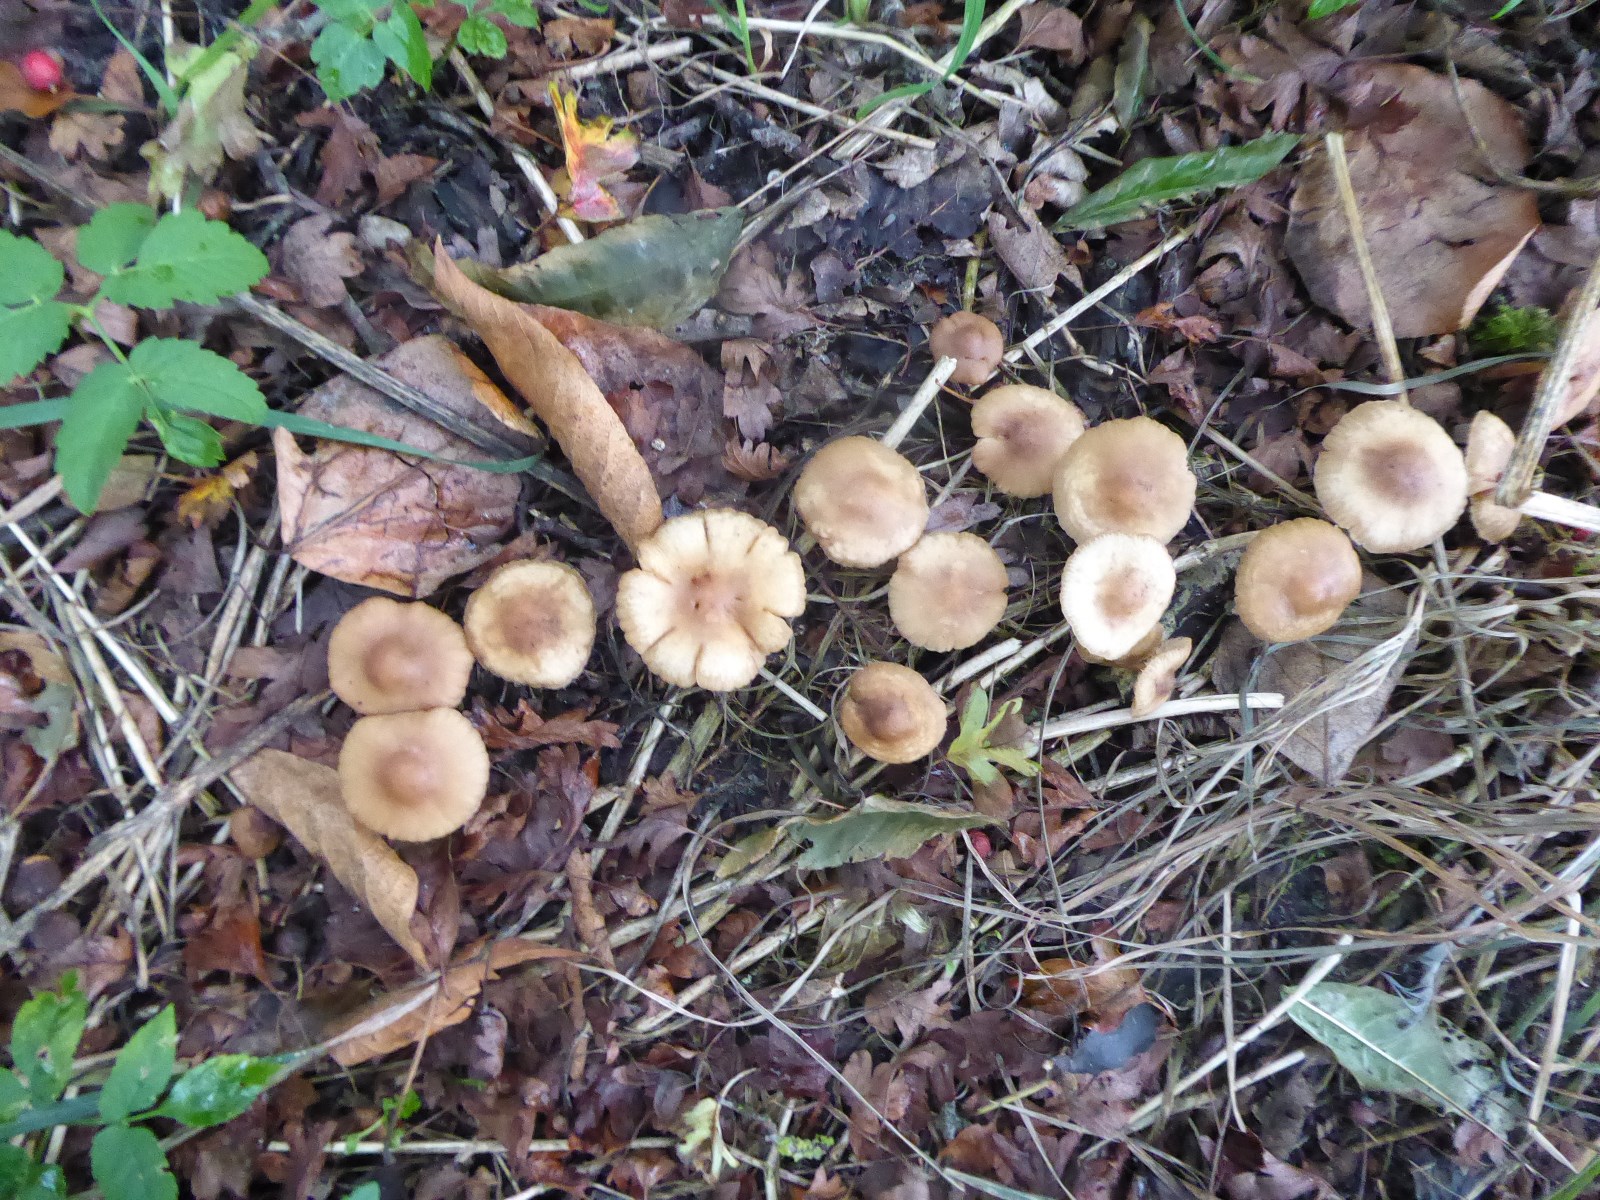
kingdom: Fungi
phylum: Basidiomycota
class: Agaricomycetes
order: Agaricales
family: Marasmiaceae
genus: Marasmius
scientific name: Marasmius oreades
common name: elledans-bruskhat
